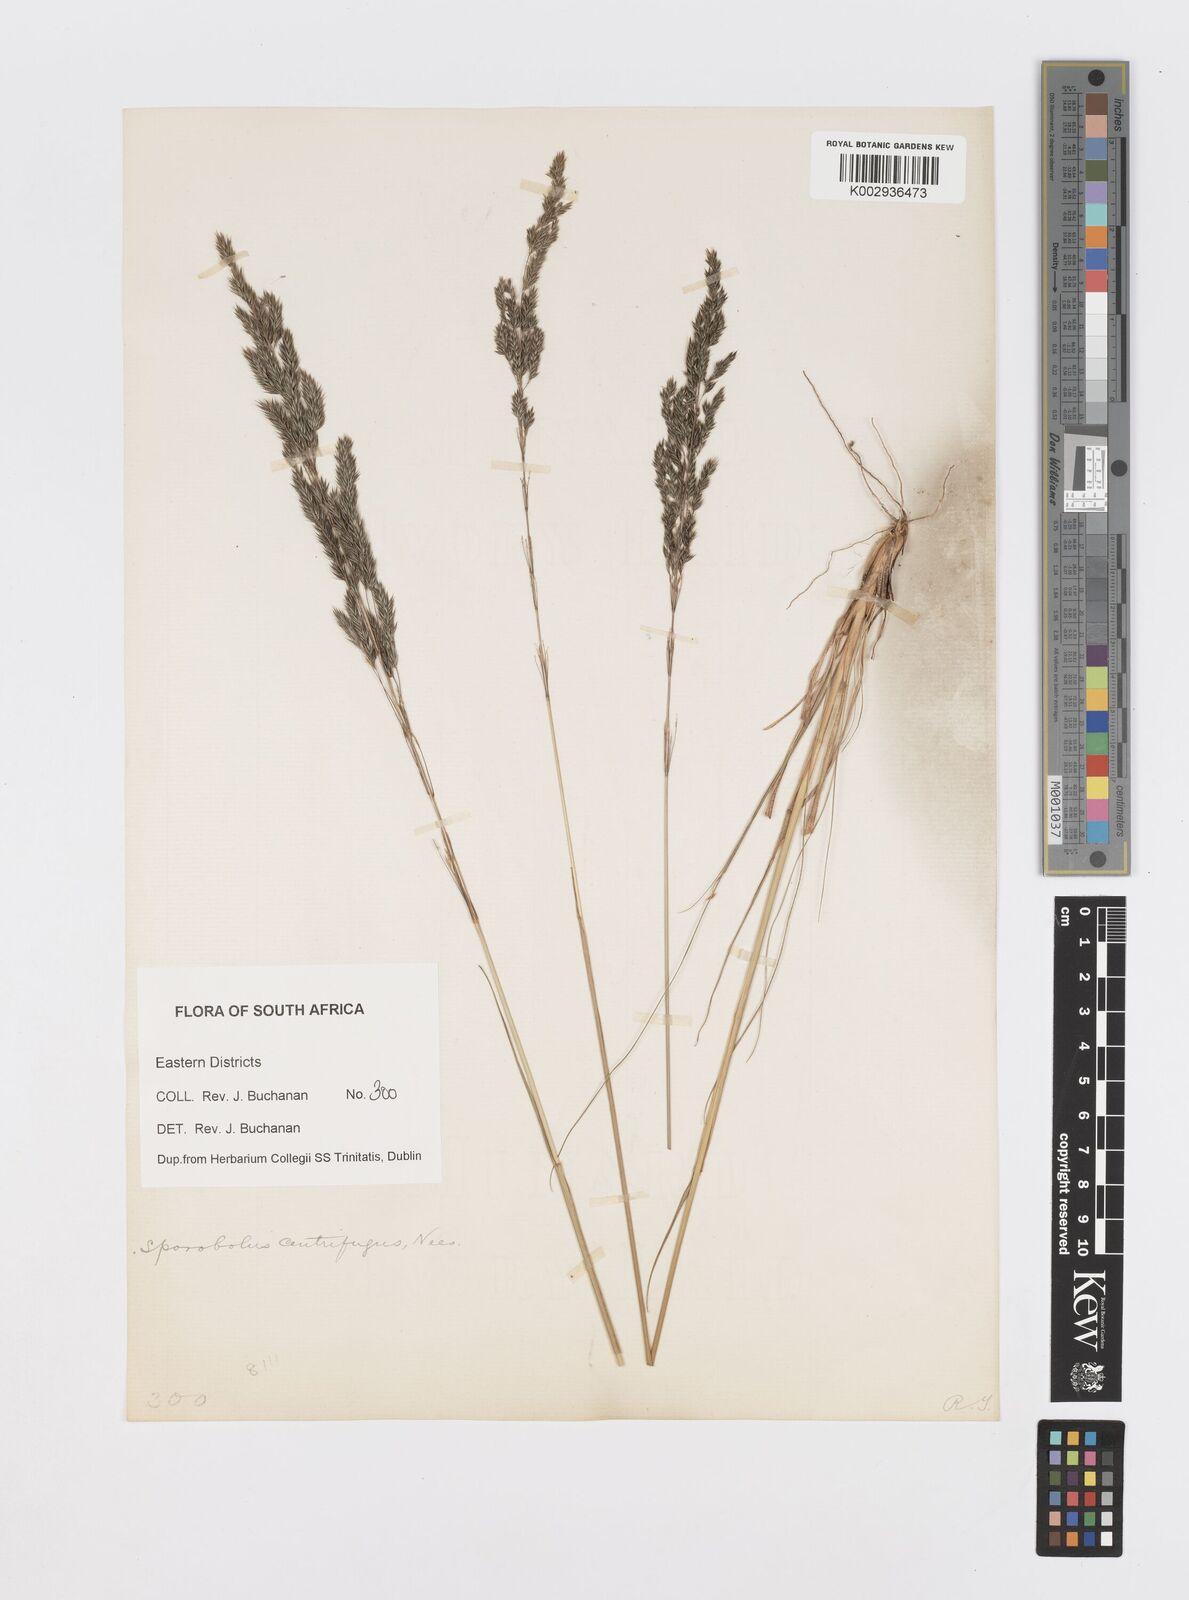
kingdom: Plantae
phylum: Tracheophyta
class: Liliopsida
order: Poales
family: Poaceae
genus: Sporobolus
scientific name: Sporobolus acinifolius
